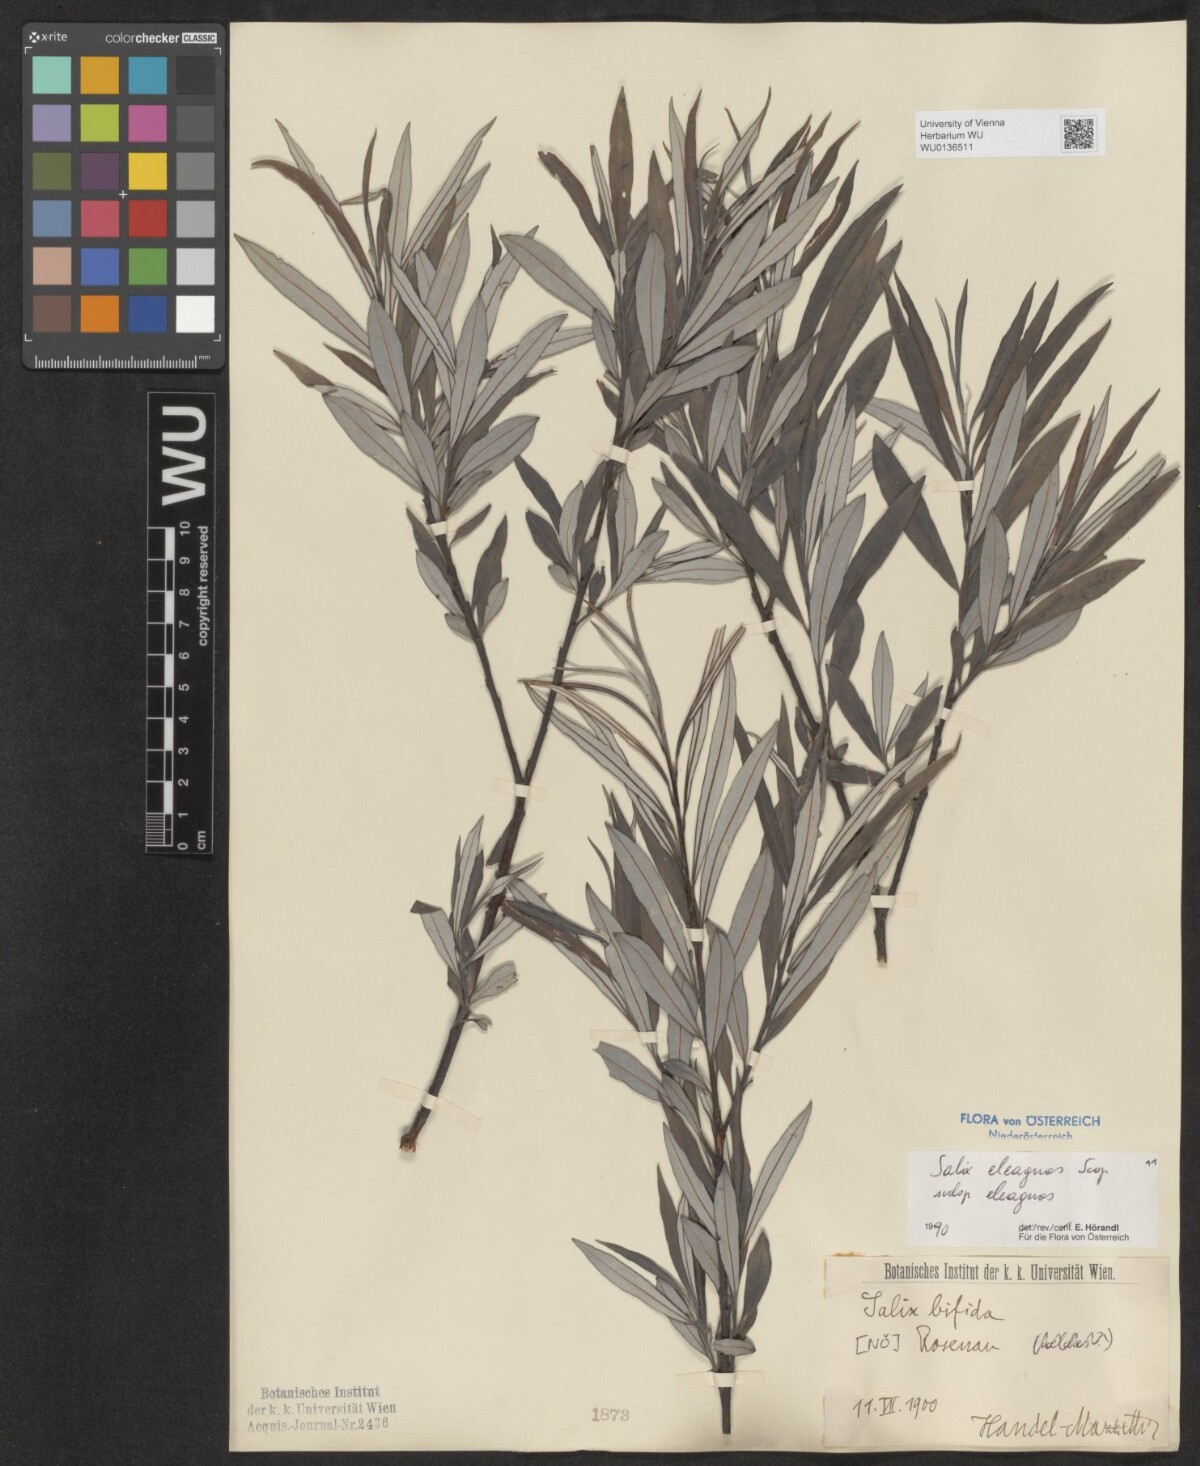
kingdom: Plantae
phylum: Tracheophyta
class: Magnoliopsida
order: Malpighiales
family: Salicaceae
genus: Salix
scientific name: Salix eleagnos
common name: Elaeagnus willow
